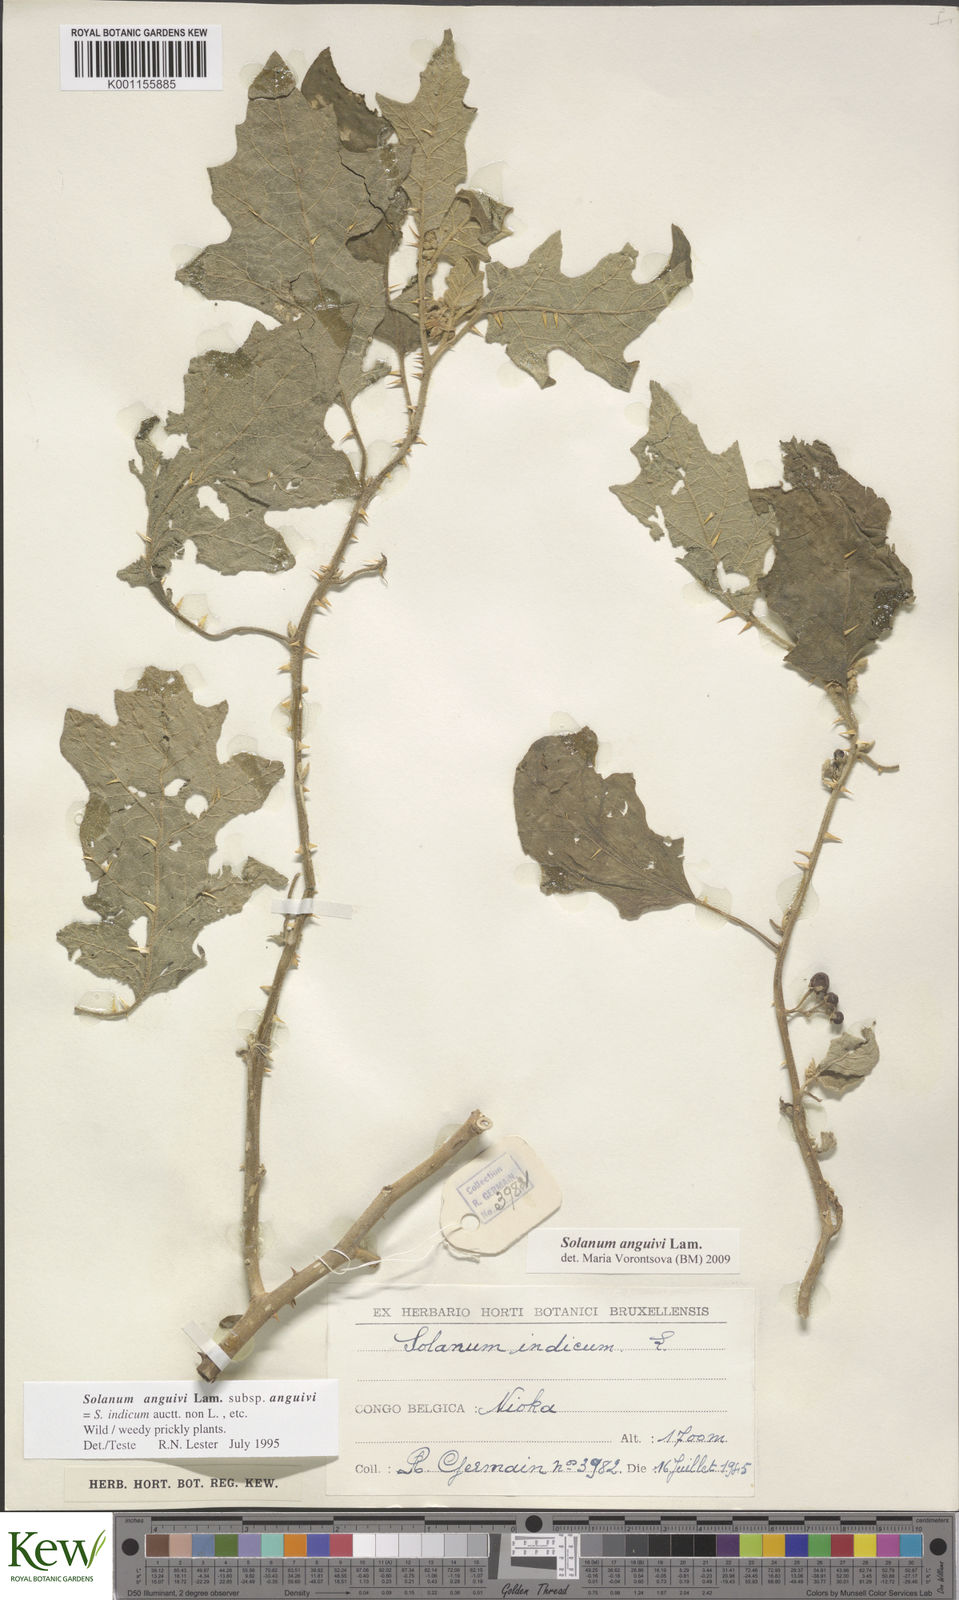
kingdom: Plantae
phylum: Tracheophyta
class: Magnoliopsida
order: Solanales
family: Solanaceae
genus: Solanum
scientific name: Solanum anguivi
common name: Forest bitterberry
